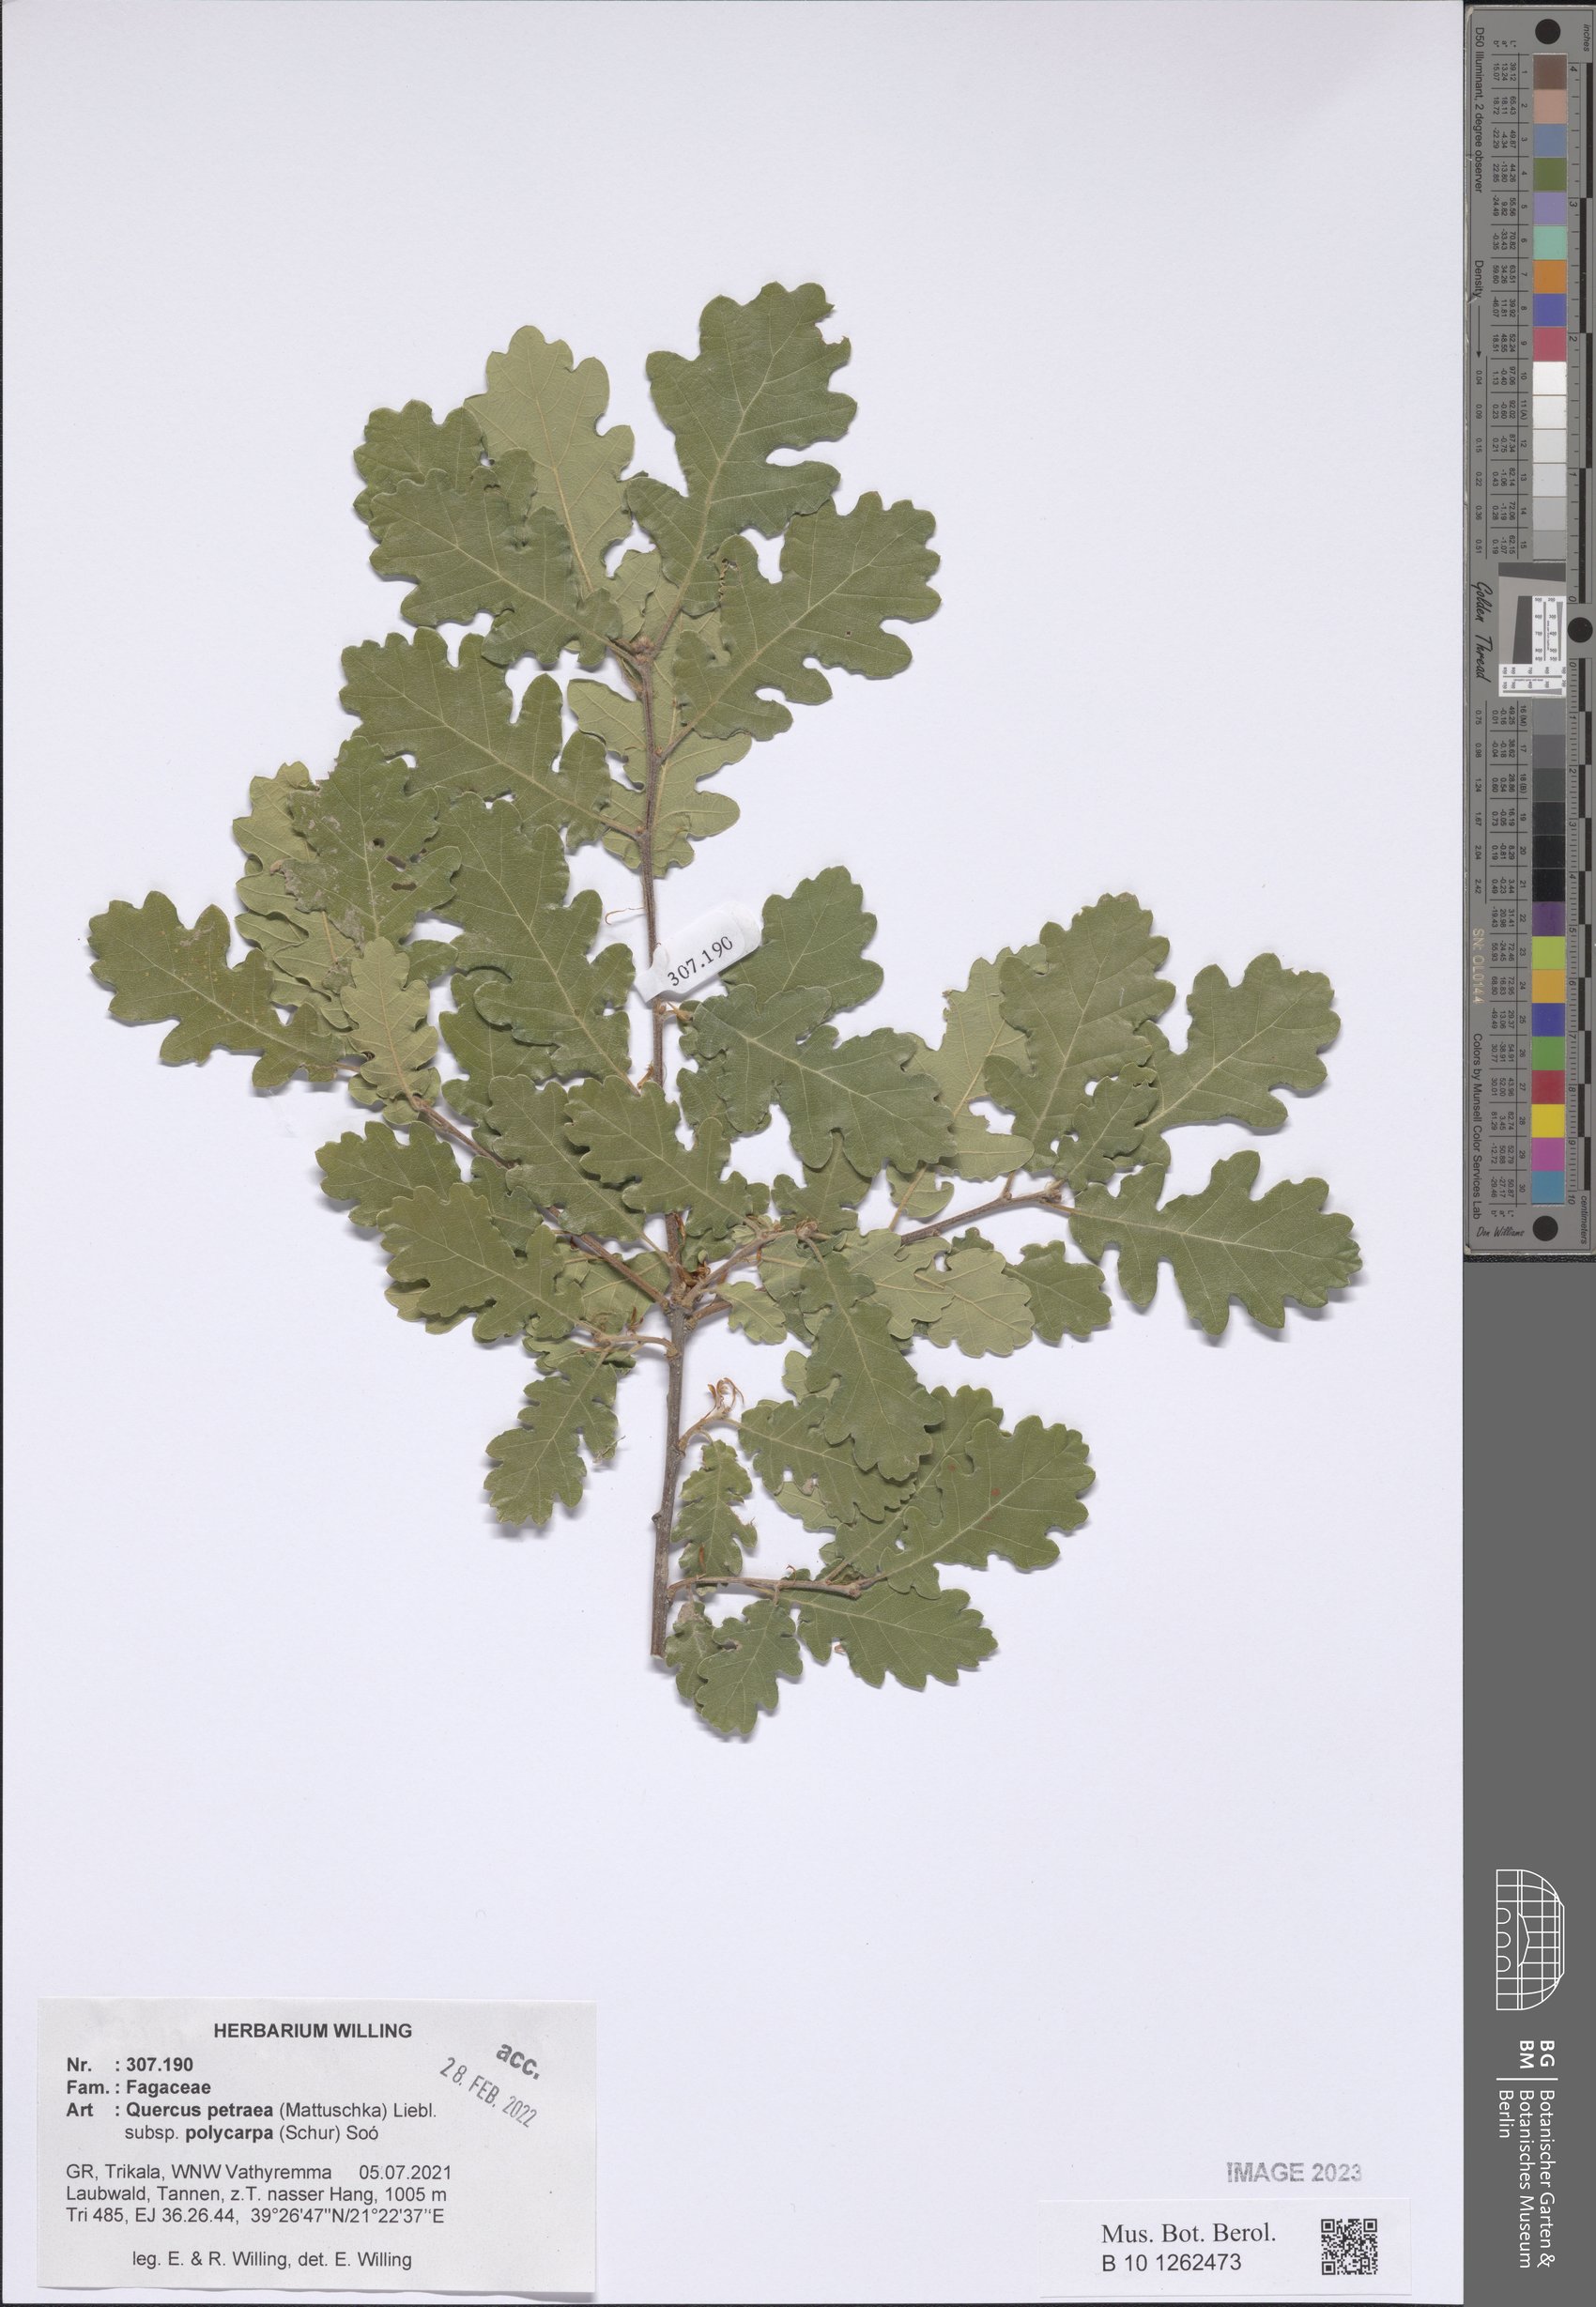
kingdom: Plantae
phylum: Tracheophyta
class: Magnoliopsida
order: Fagales
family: Fagaceae
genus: Quercus
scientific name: Quercus petraea
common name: Sessile oak
